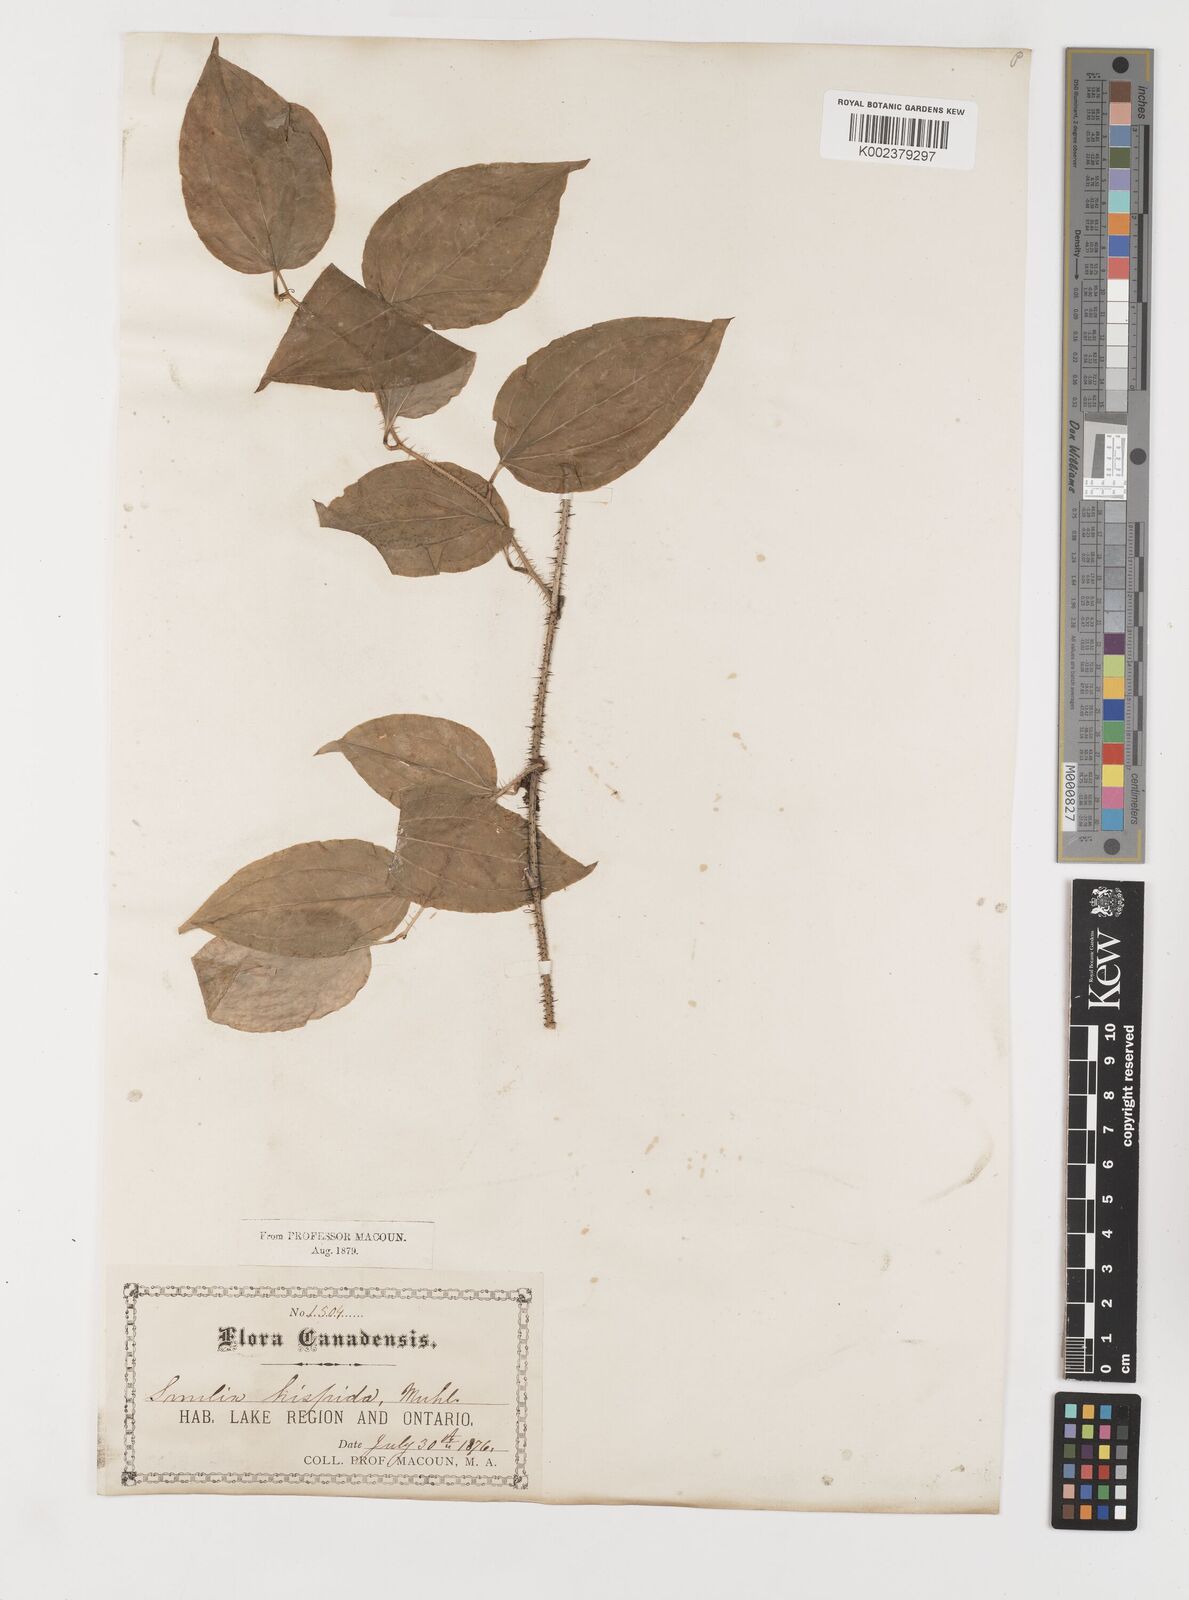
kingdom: Plantae
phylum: Tracheophyta
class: Liliopsida
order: Liliales
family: Smilacaceae
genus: Smilax
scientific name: Smilax tamnoides
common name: Hellfetter
